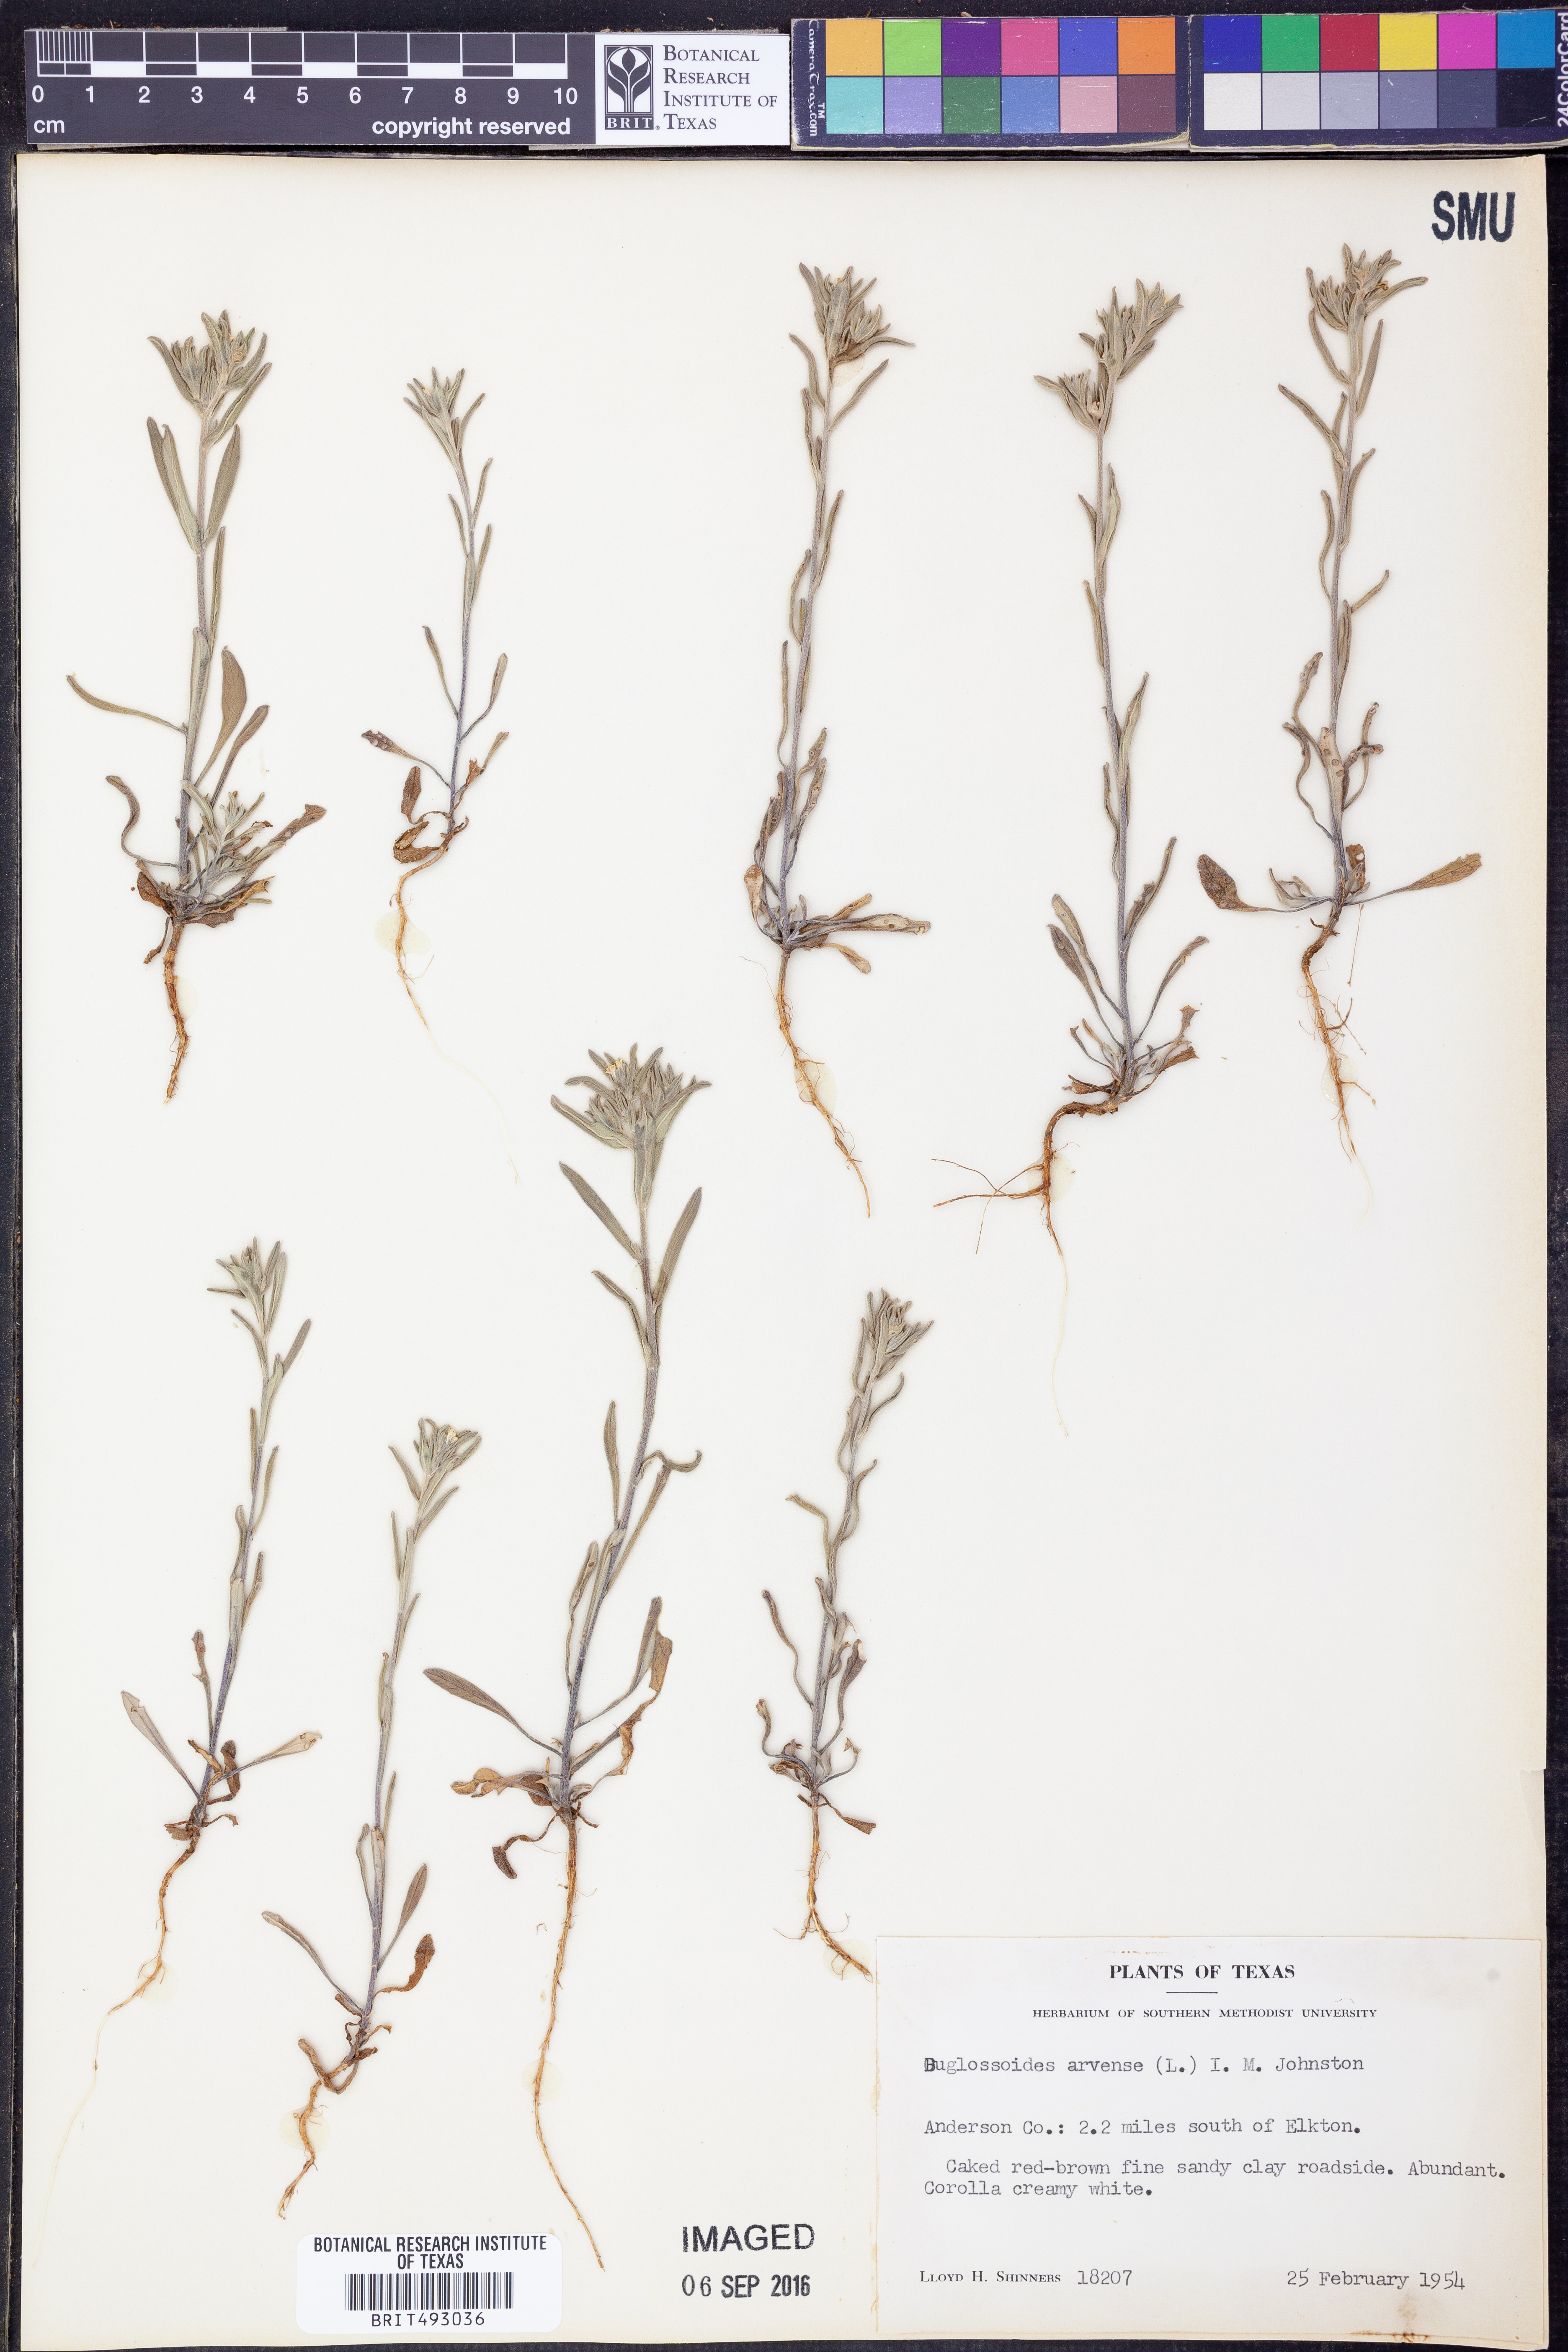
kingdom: Plantae
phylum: Tracheophyta
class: Magnoliopsida
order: Boraginales
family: Boraginaceae
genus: Buglossoides
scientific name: Buglossoides arvensis
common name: Corn gromwell
